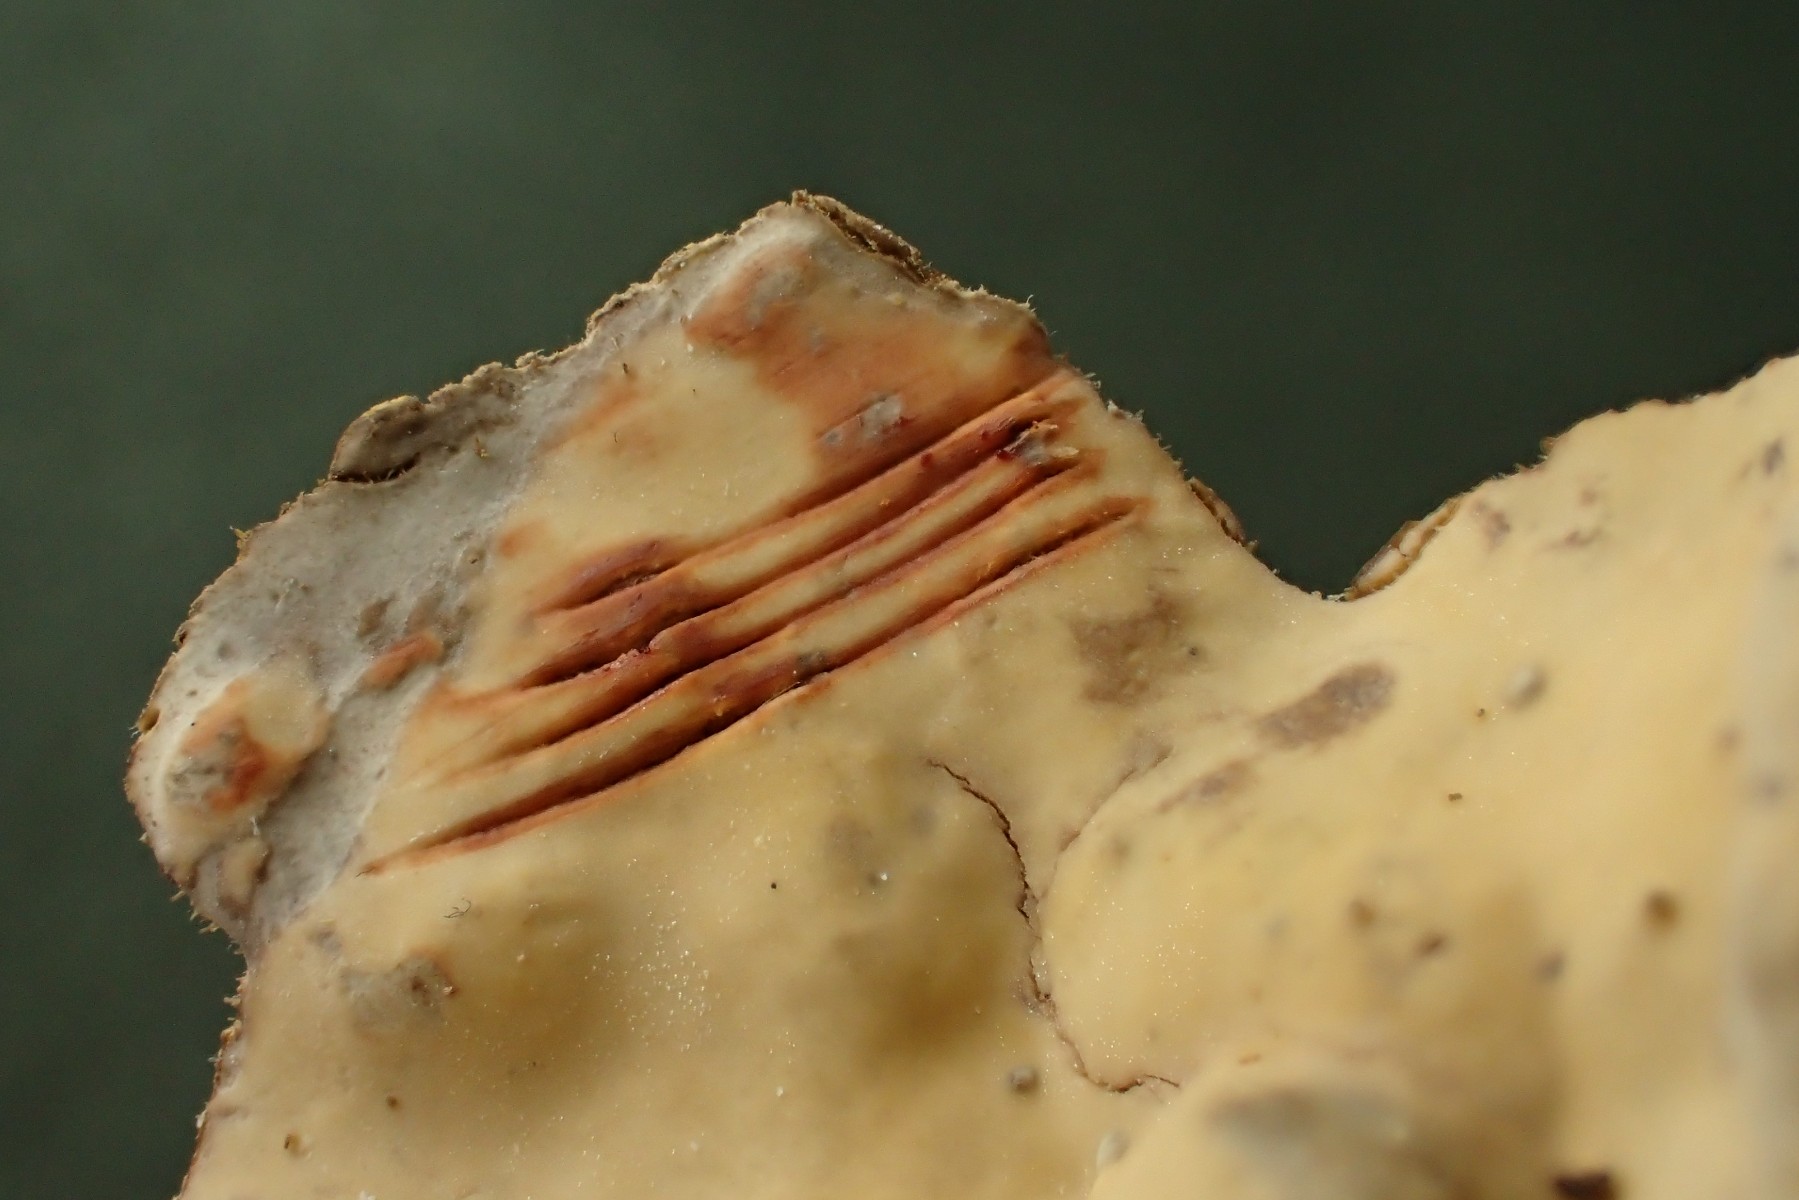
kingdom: Fungi
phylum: Basidiomycota
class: Agaricomycetes
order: Russulales
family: Stereaceae
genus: Stereum
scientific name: Stereum rugosum
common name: rynket lædersvamp
